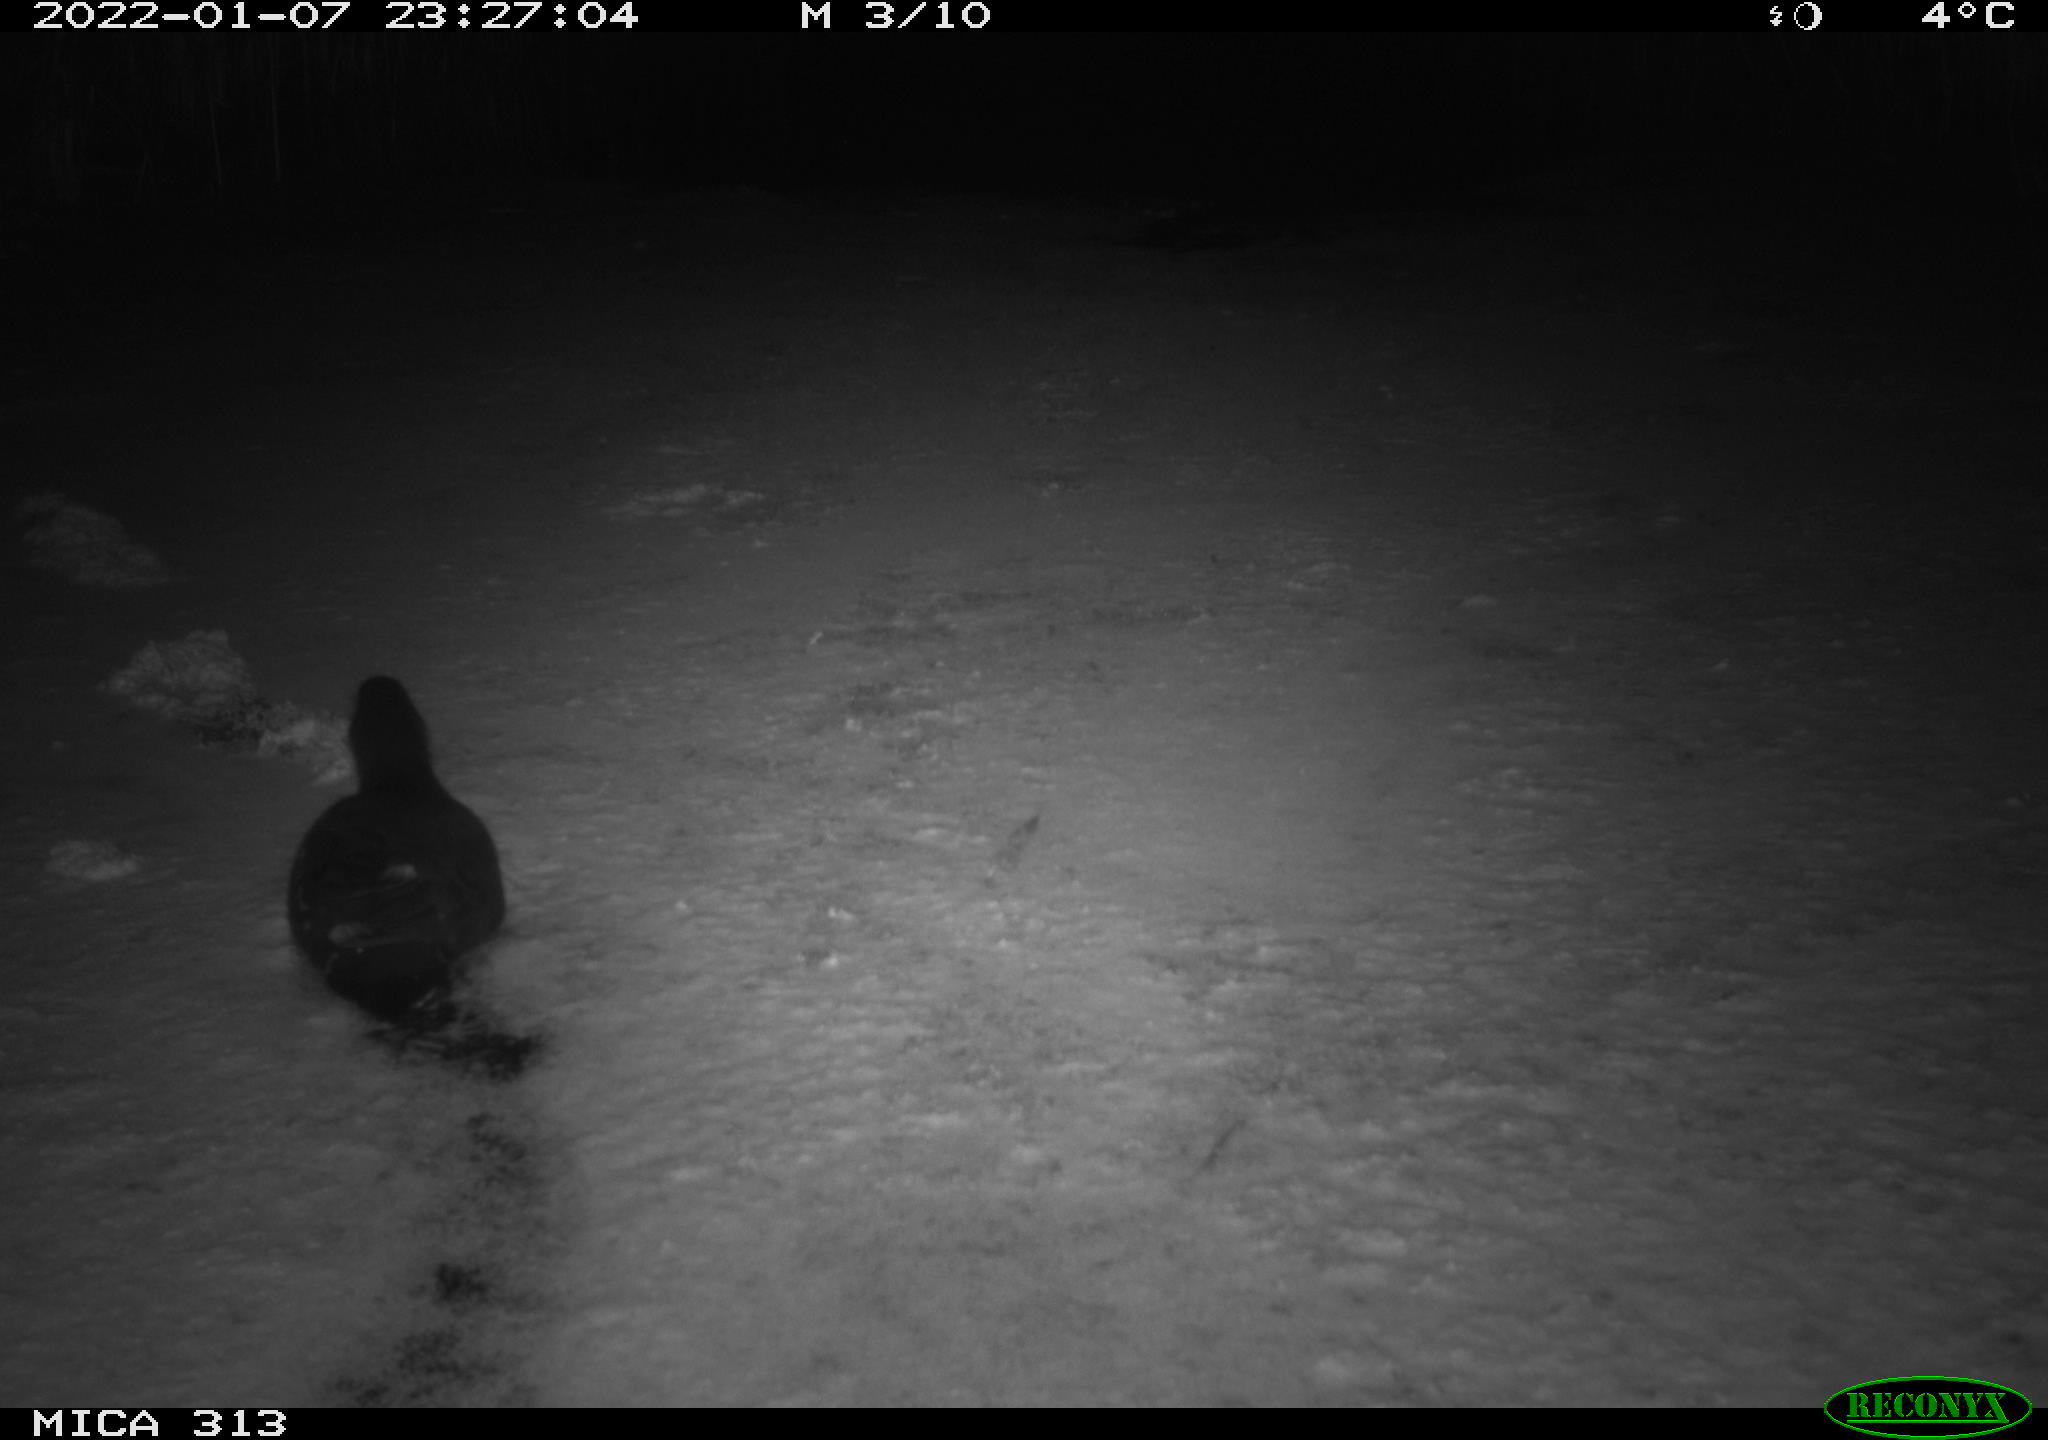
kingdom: Animalia
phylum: Chordata
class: Aves
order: Gruiformes
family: Rallidae
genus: Gallinula
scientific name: Gallinula chloropus
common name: Common moorhen
